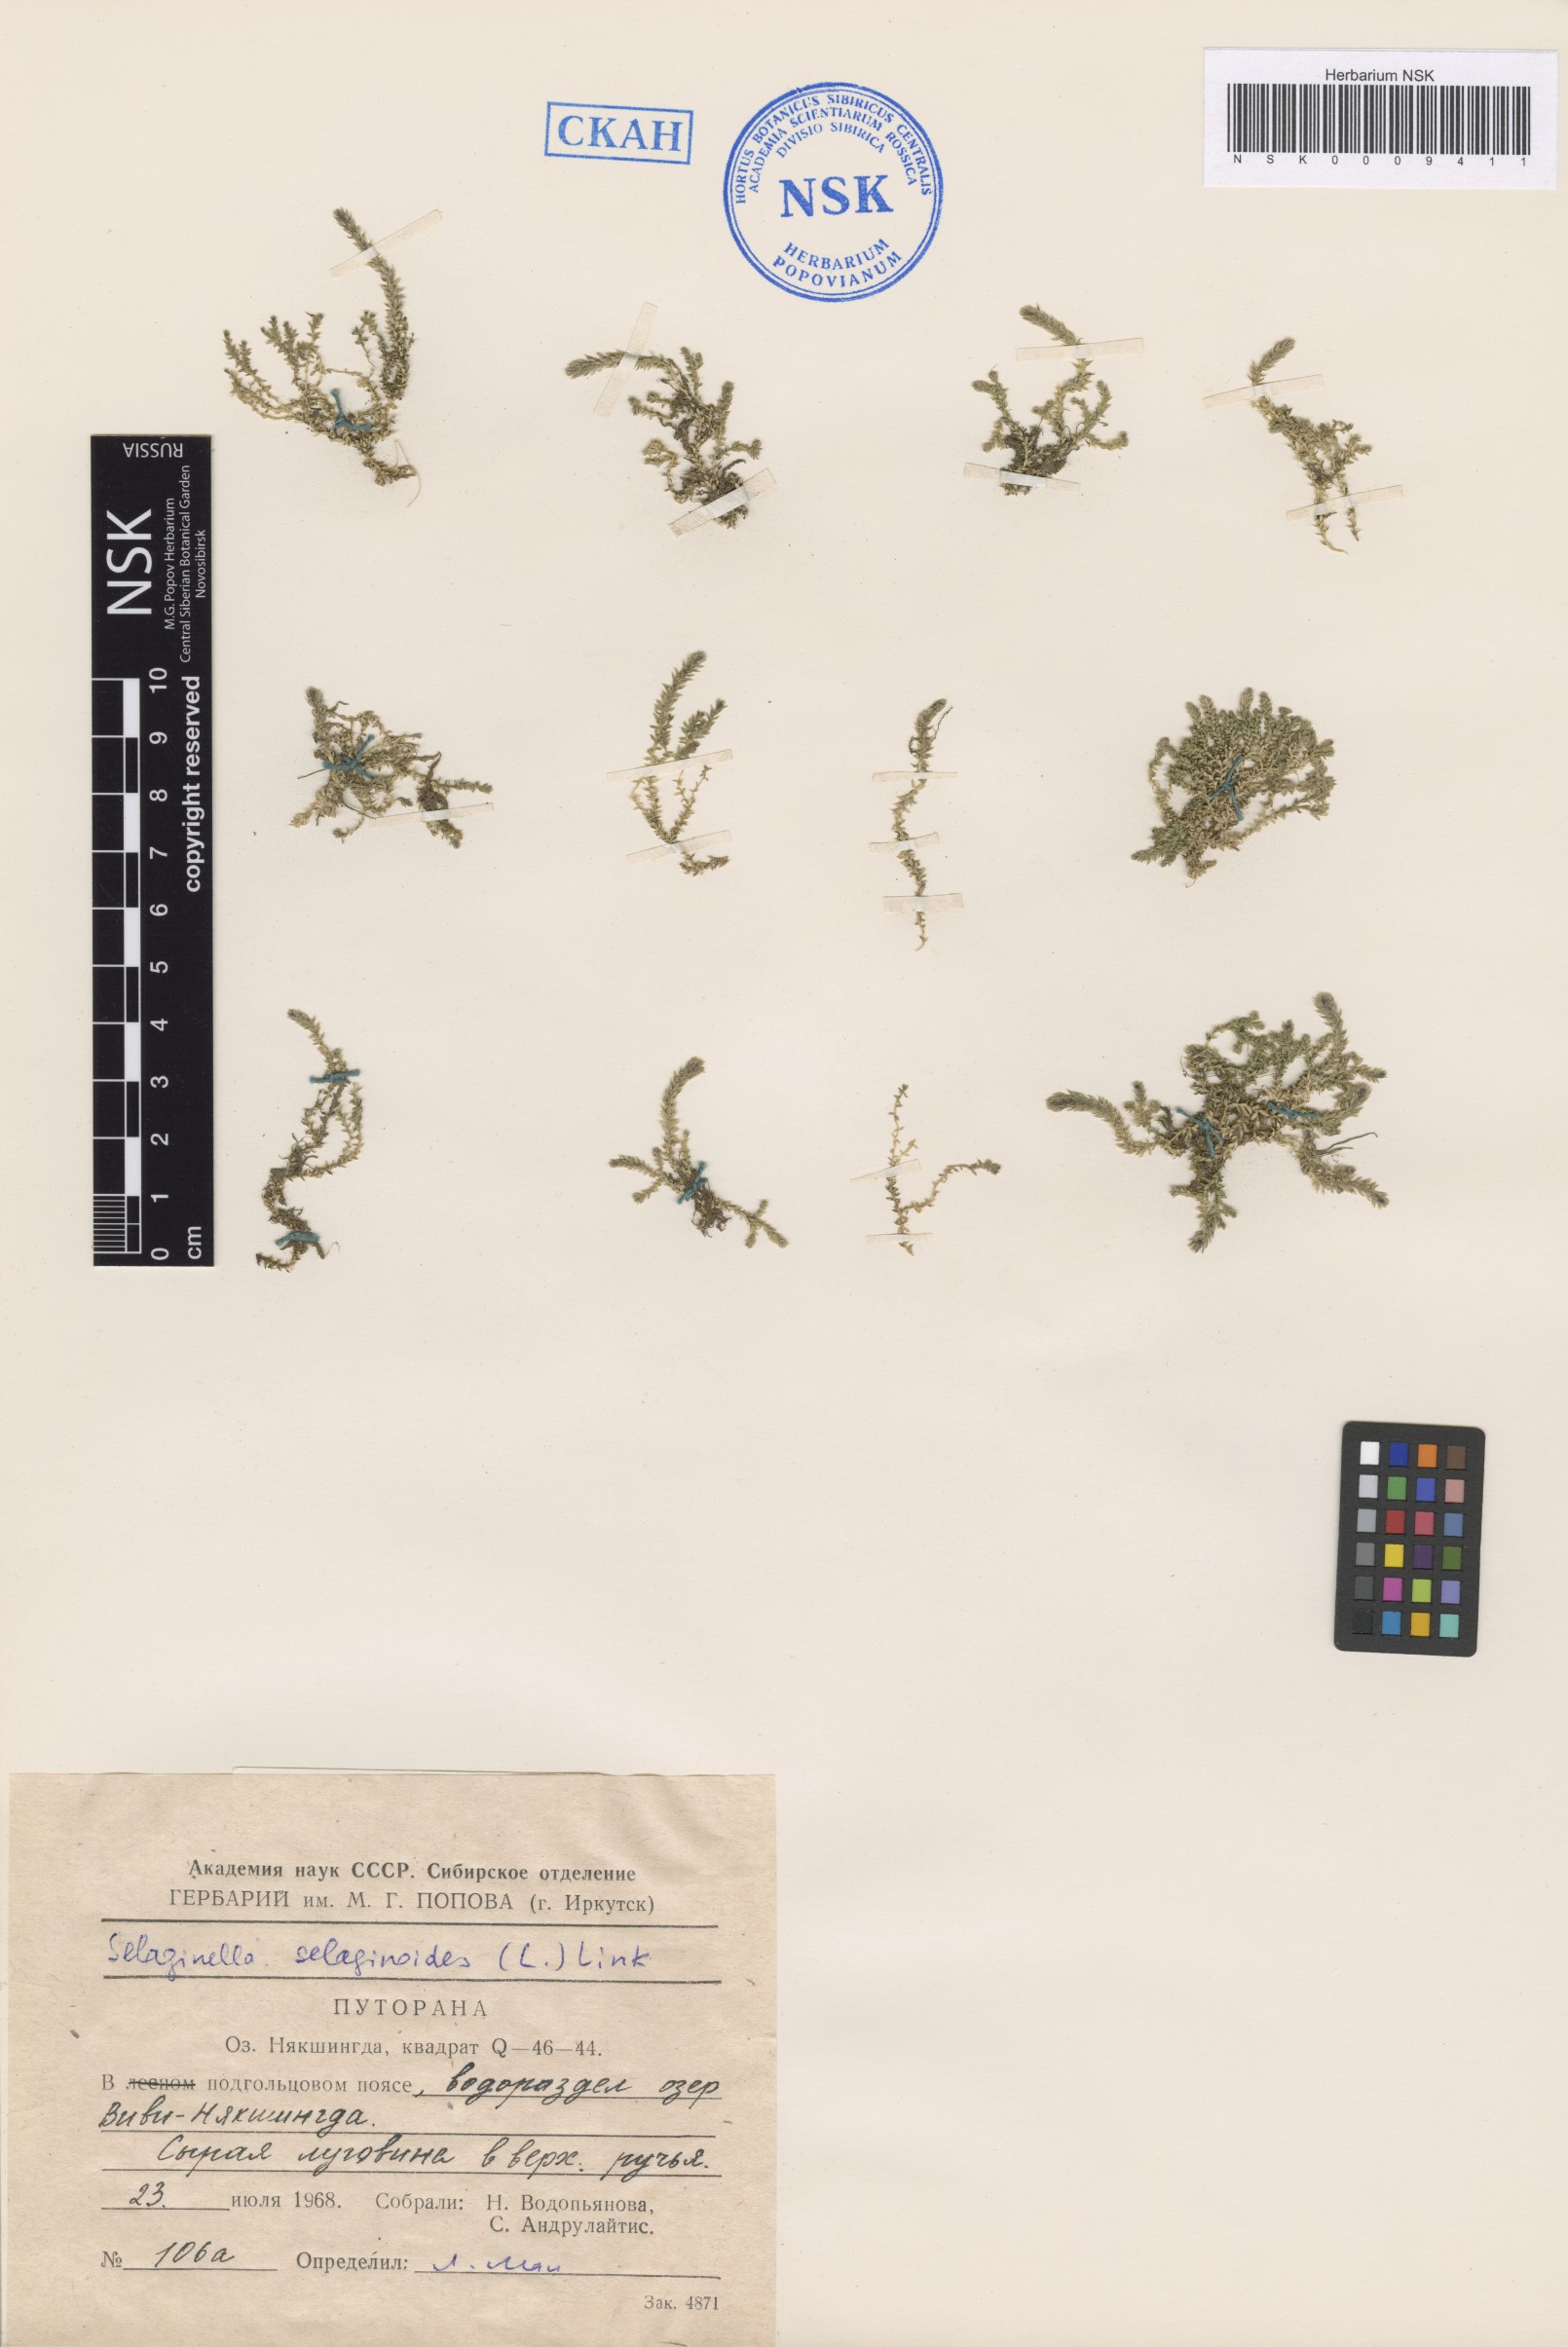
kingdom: Plantae
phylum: Tracheophyta
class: Lycopodiopsida
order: Selaginellales
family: Selaginellaceae
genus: Selaginella
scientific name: Selaginella selaginoides
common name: Prickly mountain-moss
